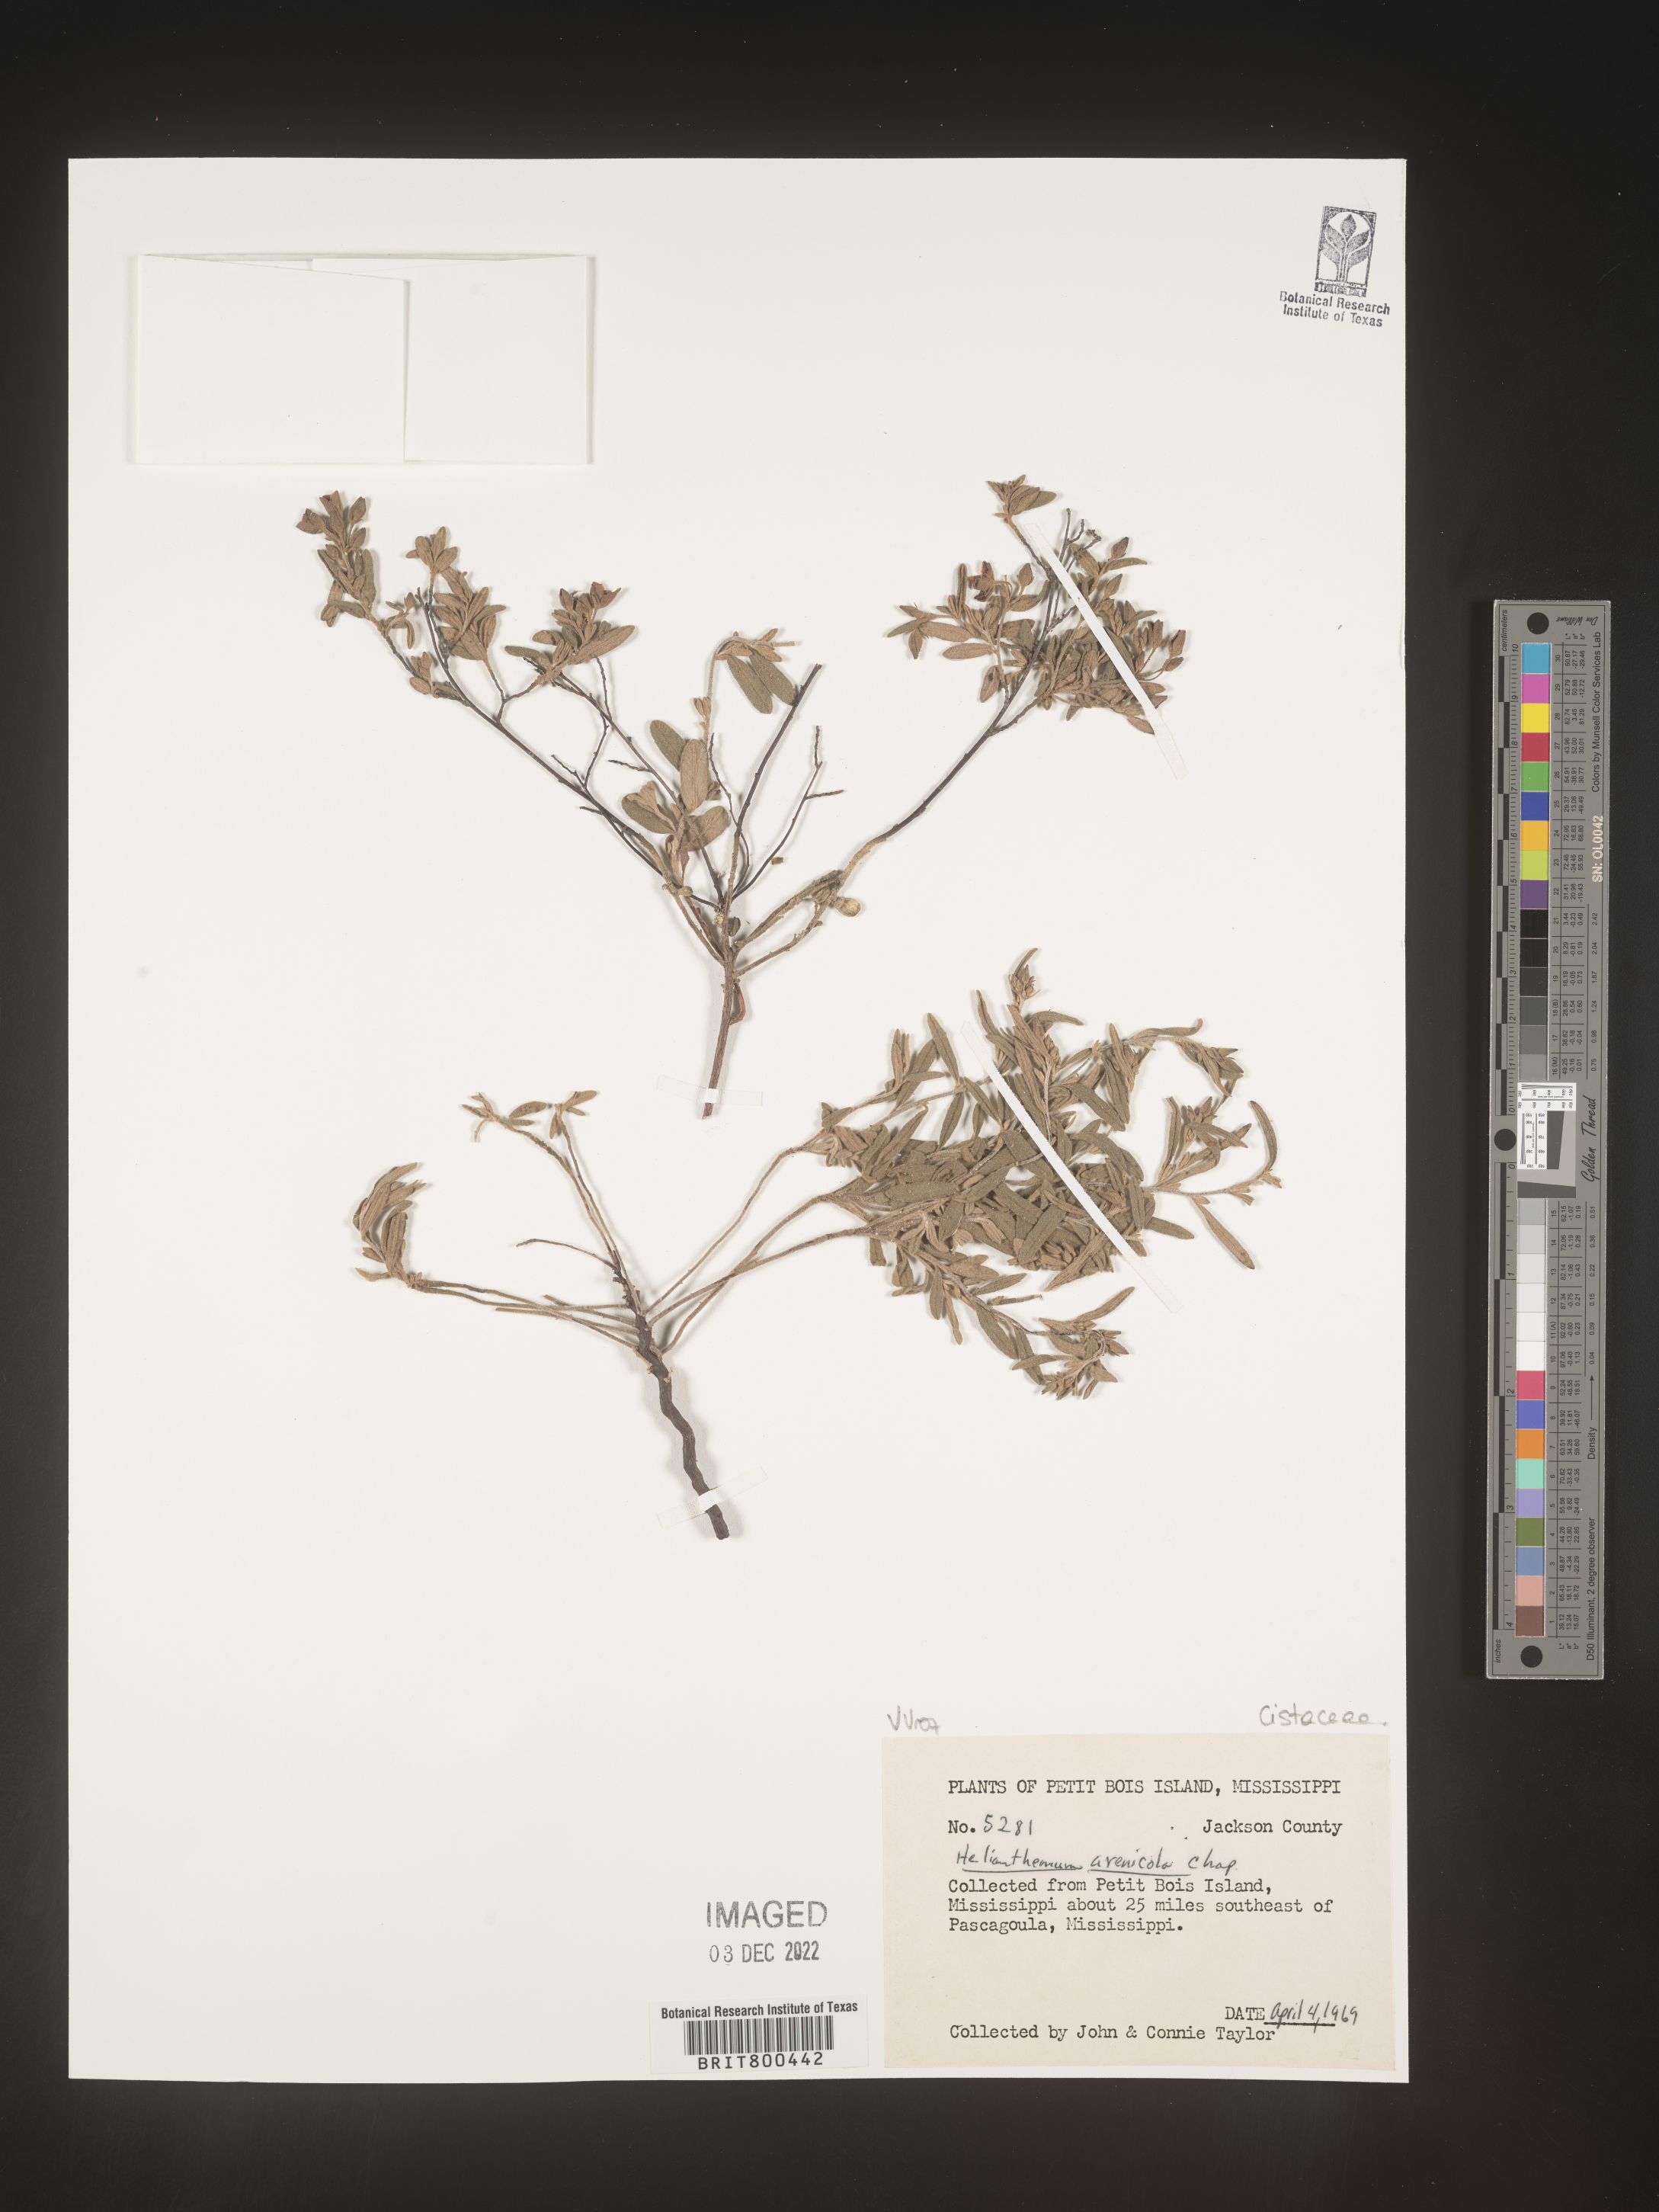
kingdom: Plantae
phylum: Tracheophyta
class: Magnoliopsida
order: Malvales
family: Cistaceae
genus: Helianthemum
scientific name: Helianthemum
